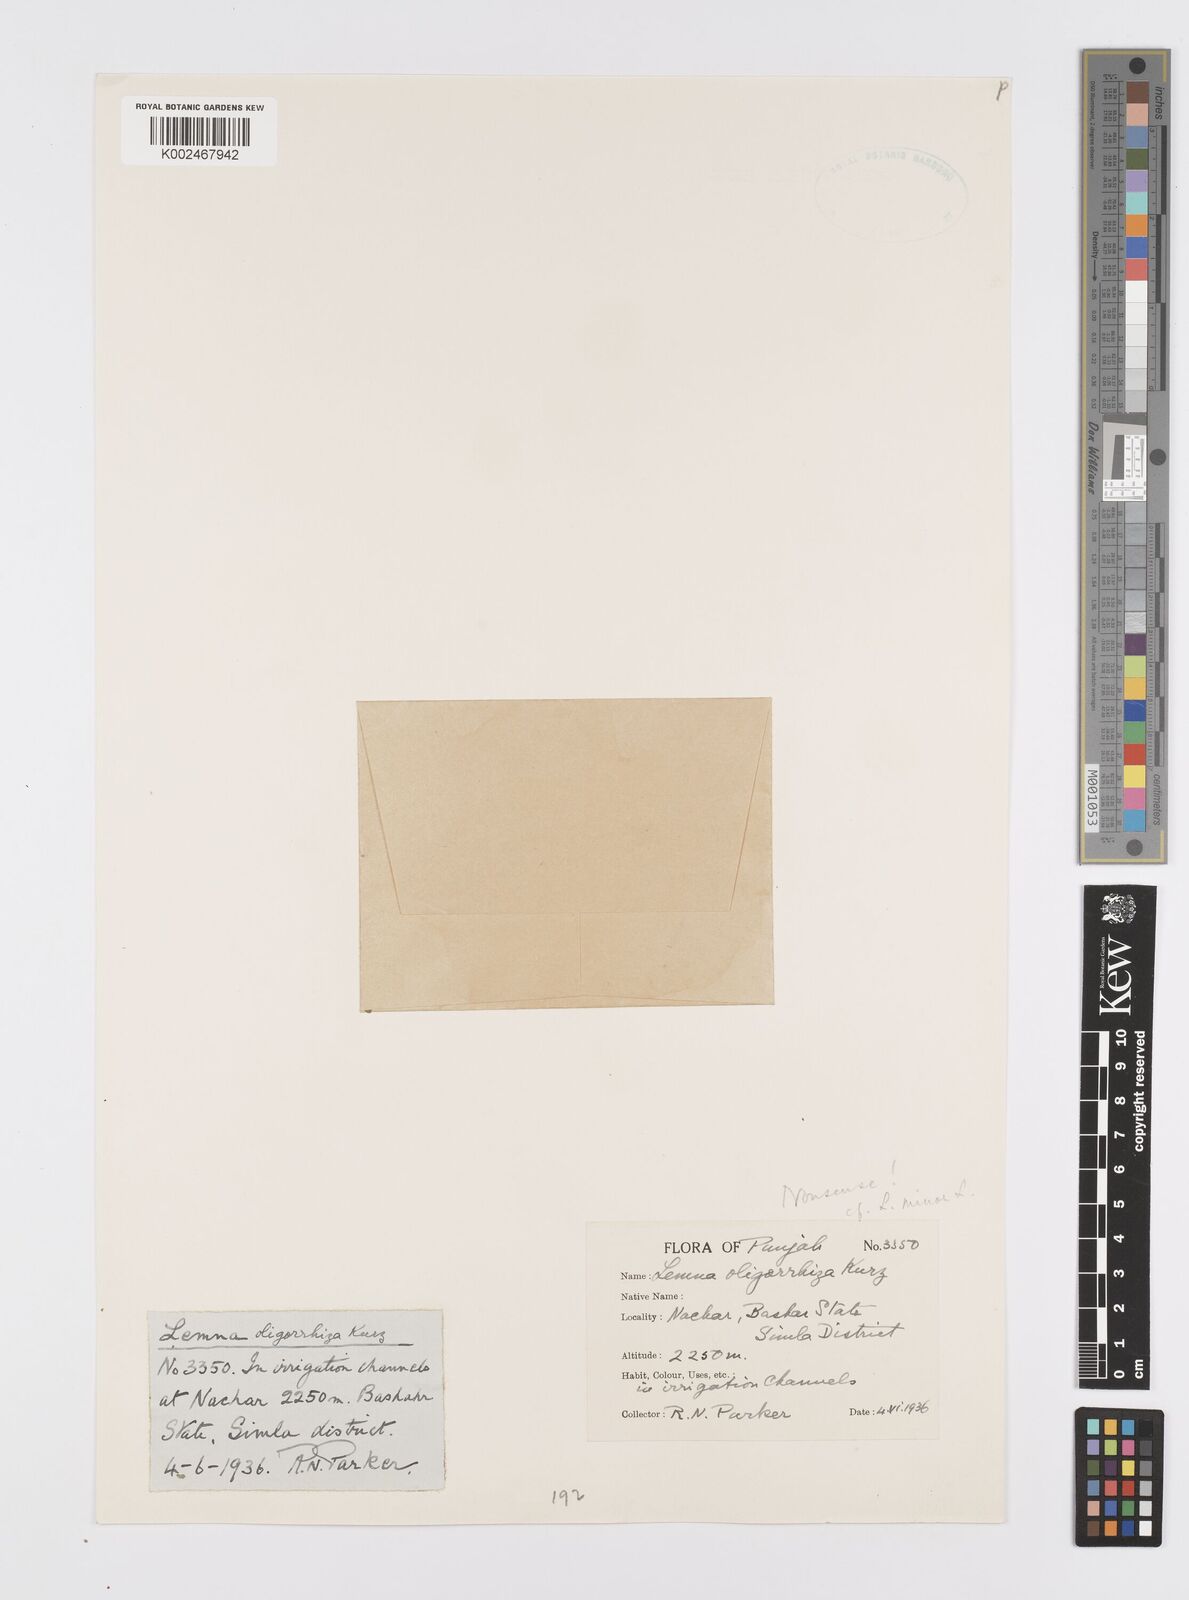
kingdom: Plantae
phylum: Tracheophyta
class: Liliopsida
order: Alismatales
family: Araceae
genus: Lemna
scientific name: Lemna minor
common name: Common duckweed
